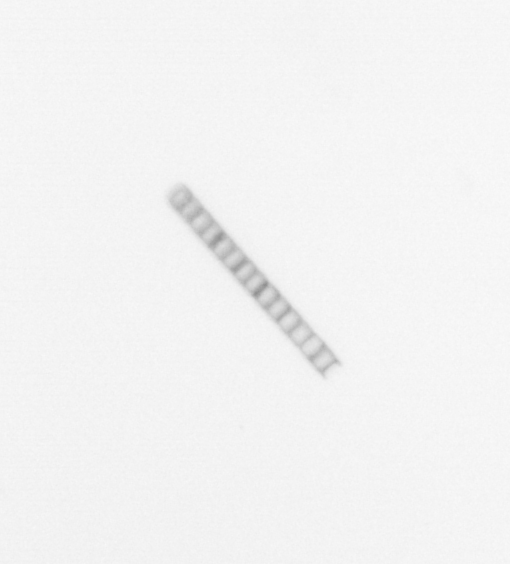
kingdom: Chromista
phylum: Ochrophyta
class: Bacillariophyceae
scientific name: Bacillariophyceae
